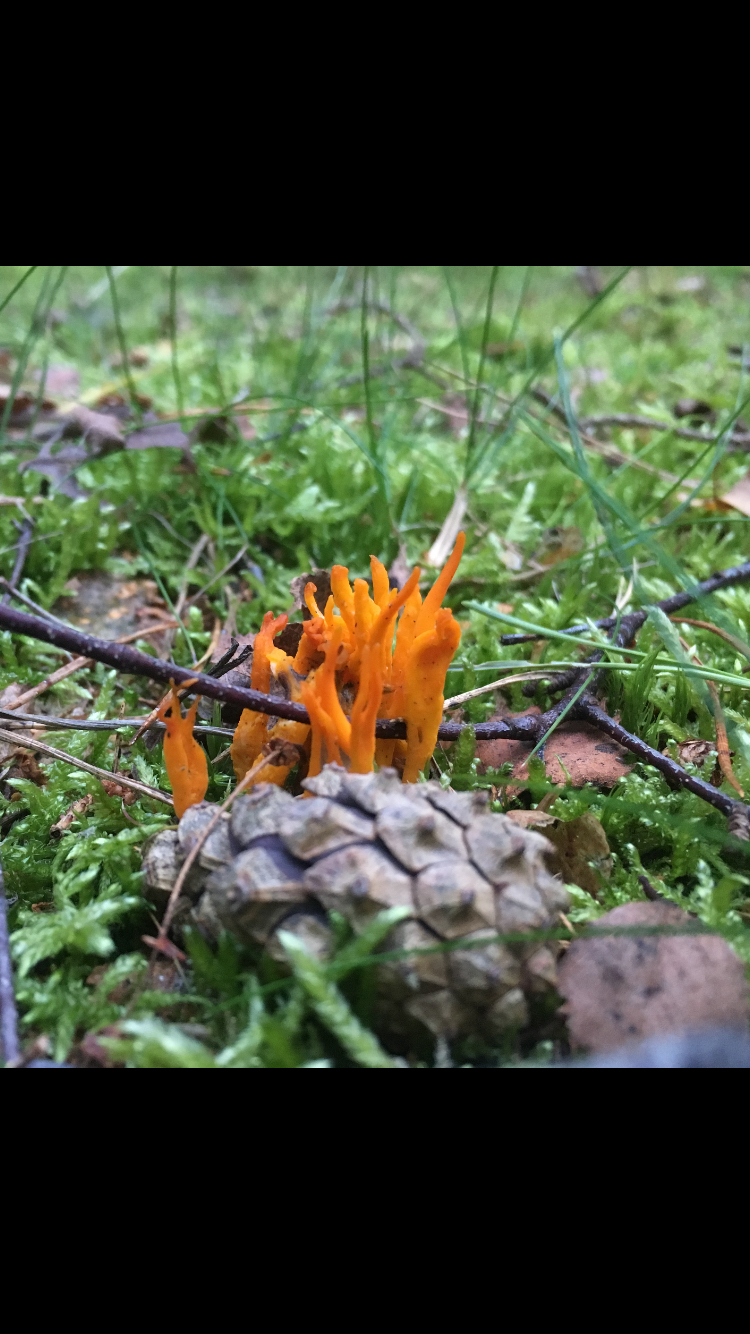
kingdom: Fungi
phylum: Basidiomycota
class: Dacrymycetes
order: Dacrymycetales
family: Dacrymycetaceae
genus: Calocera
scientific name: Calocera viscosa
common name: almindelig guldgaffel
